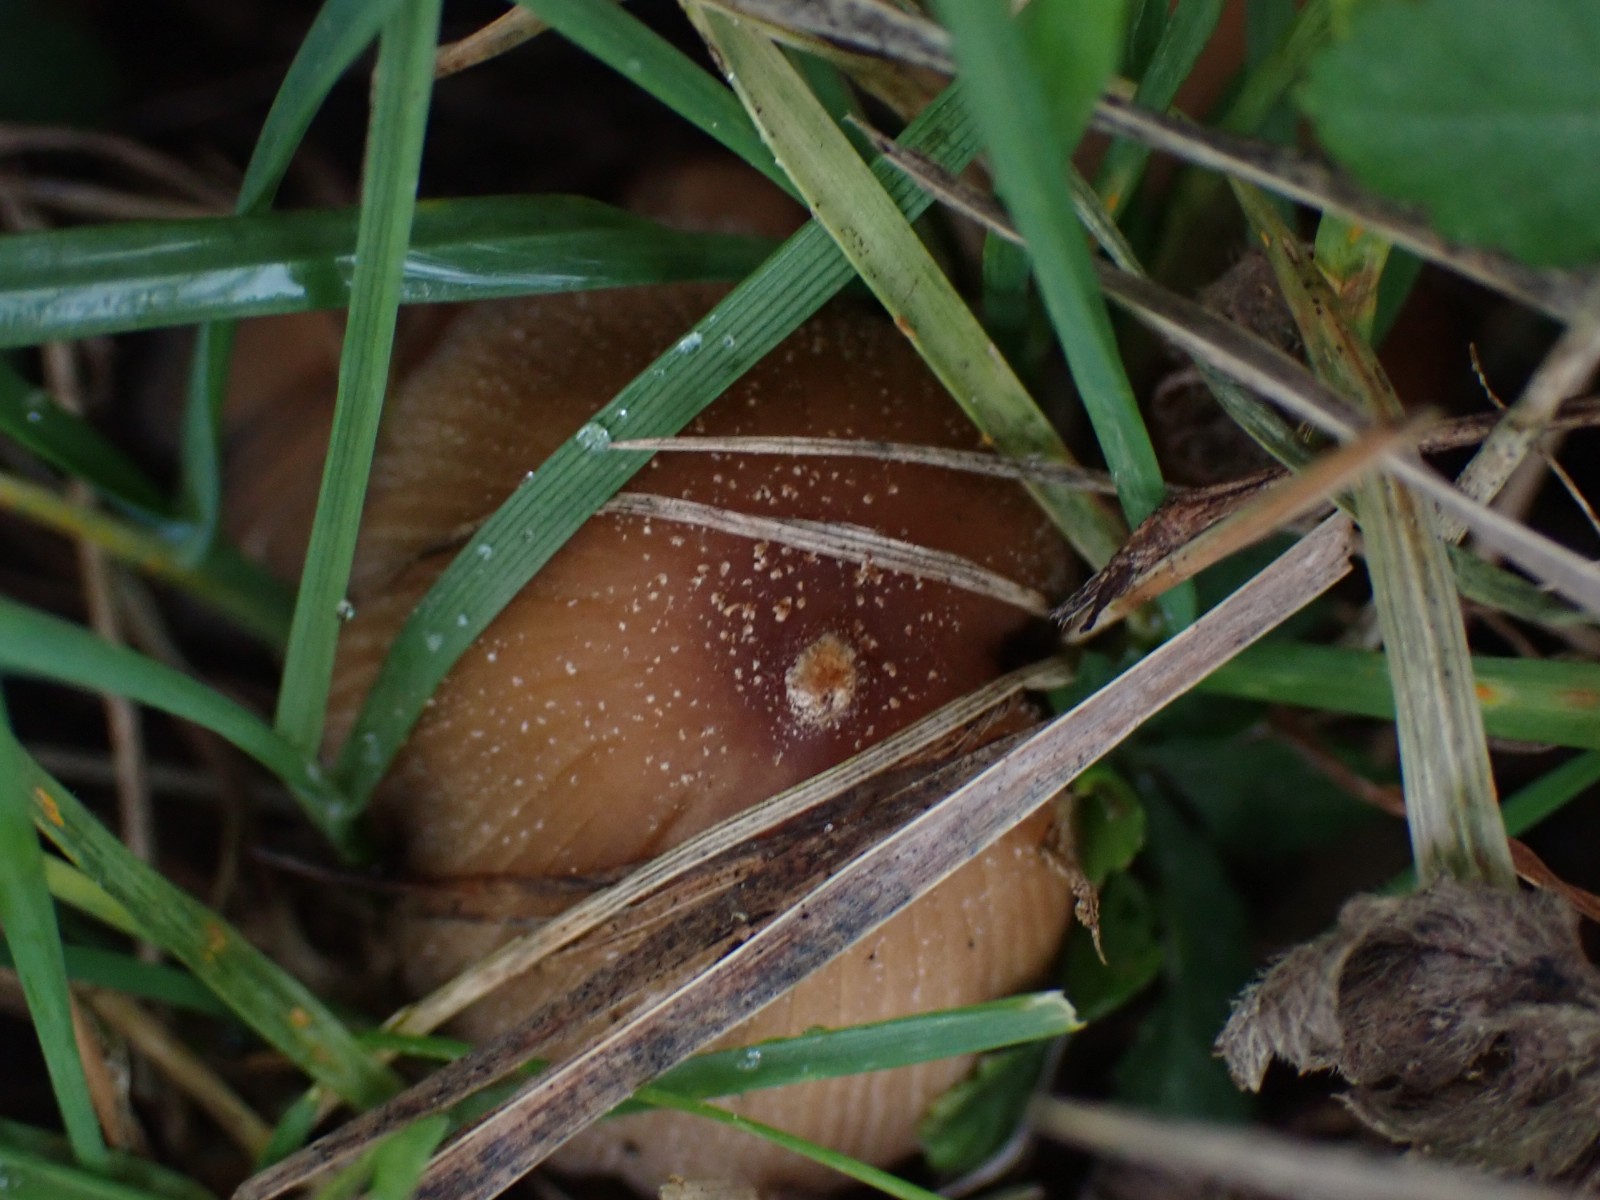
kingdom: Fungi
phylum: Basidiomycota
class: Agaricomycetes
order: Agaricales
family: Psathyrellaceae
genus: Coprinellus
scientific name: Coprinellus micaceus
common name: glimmer-blækhat
